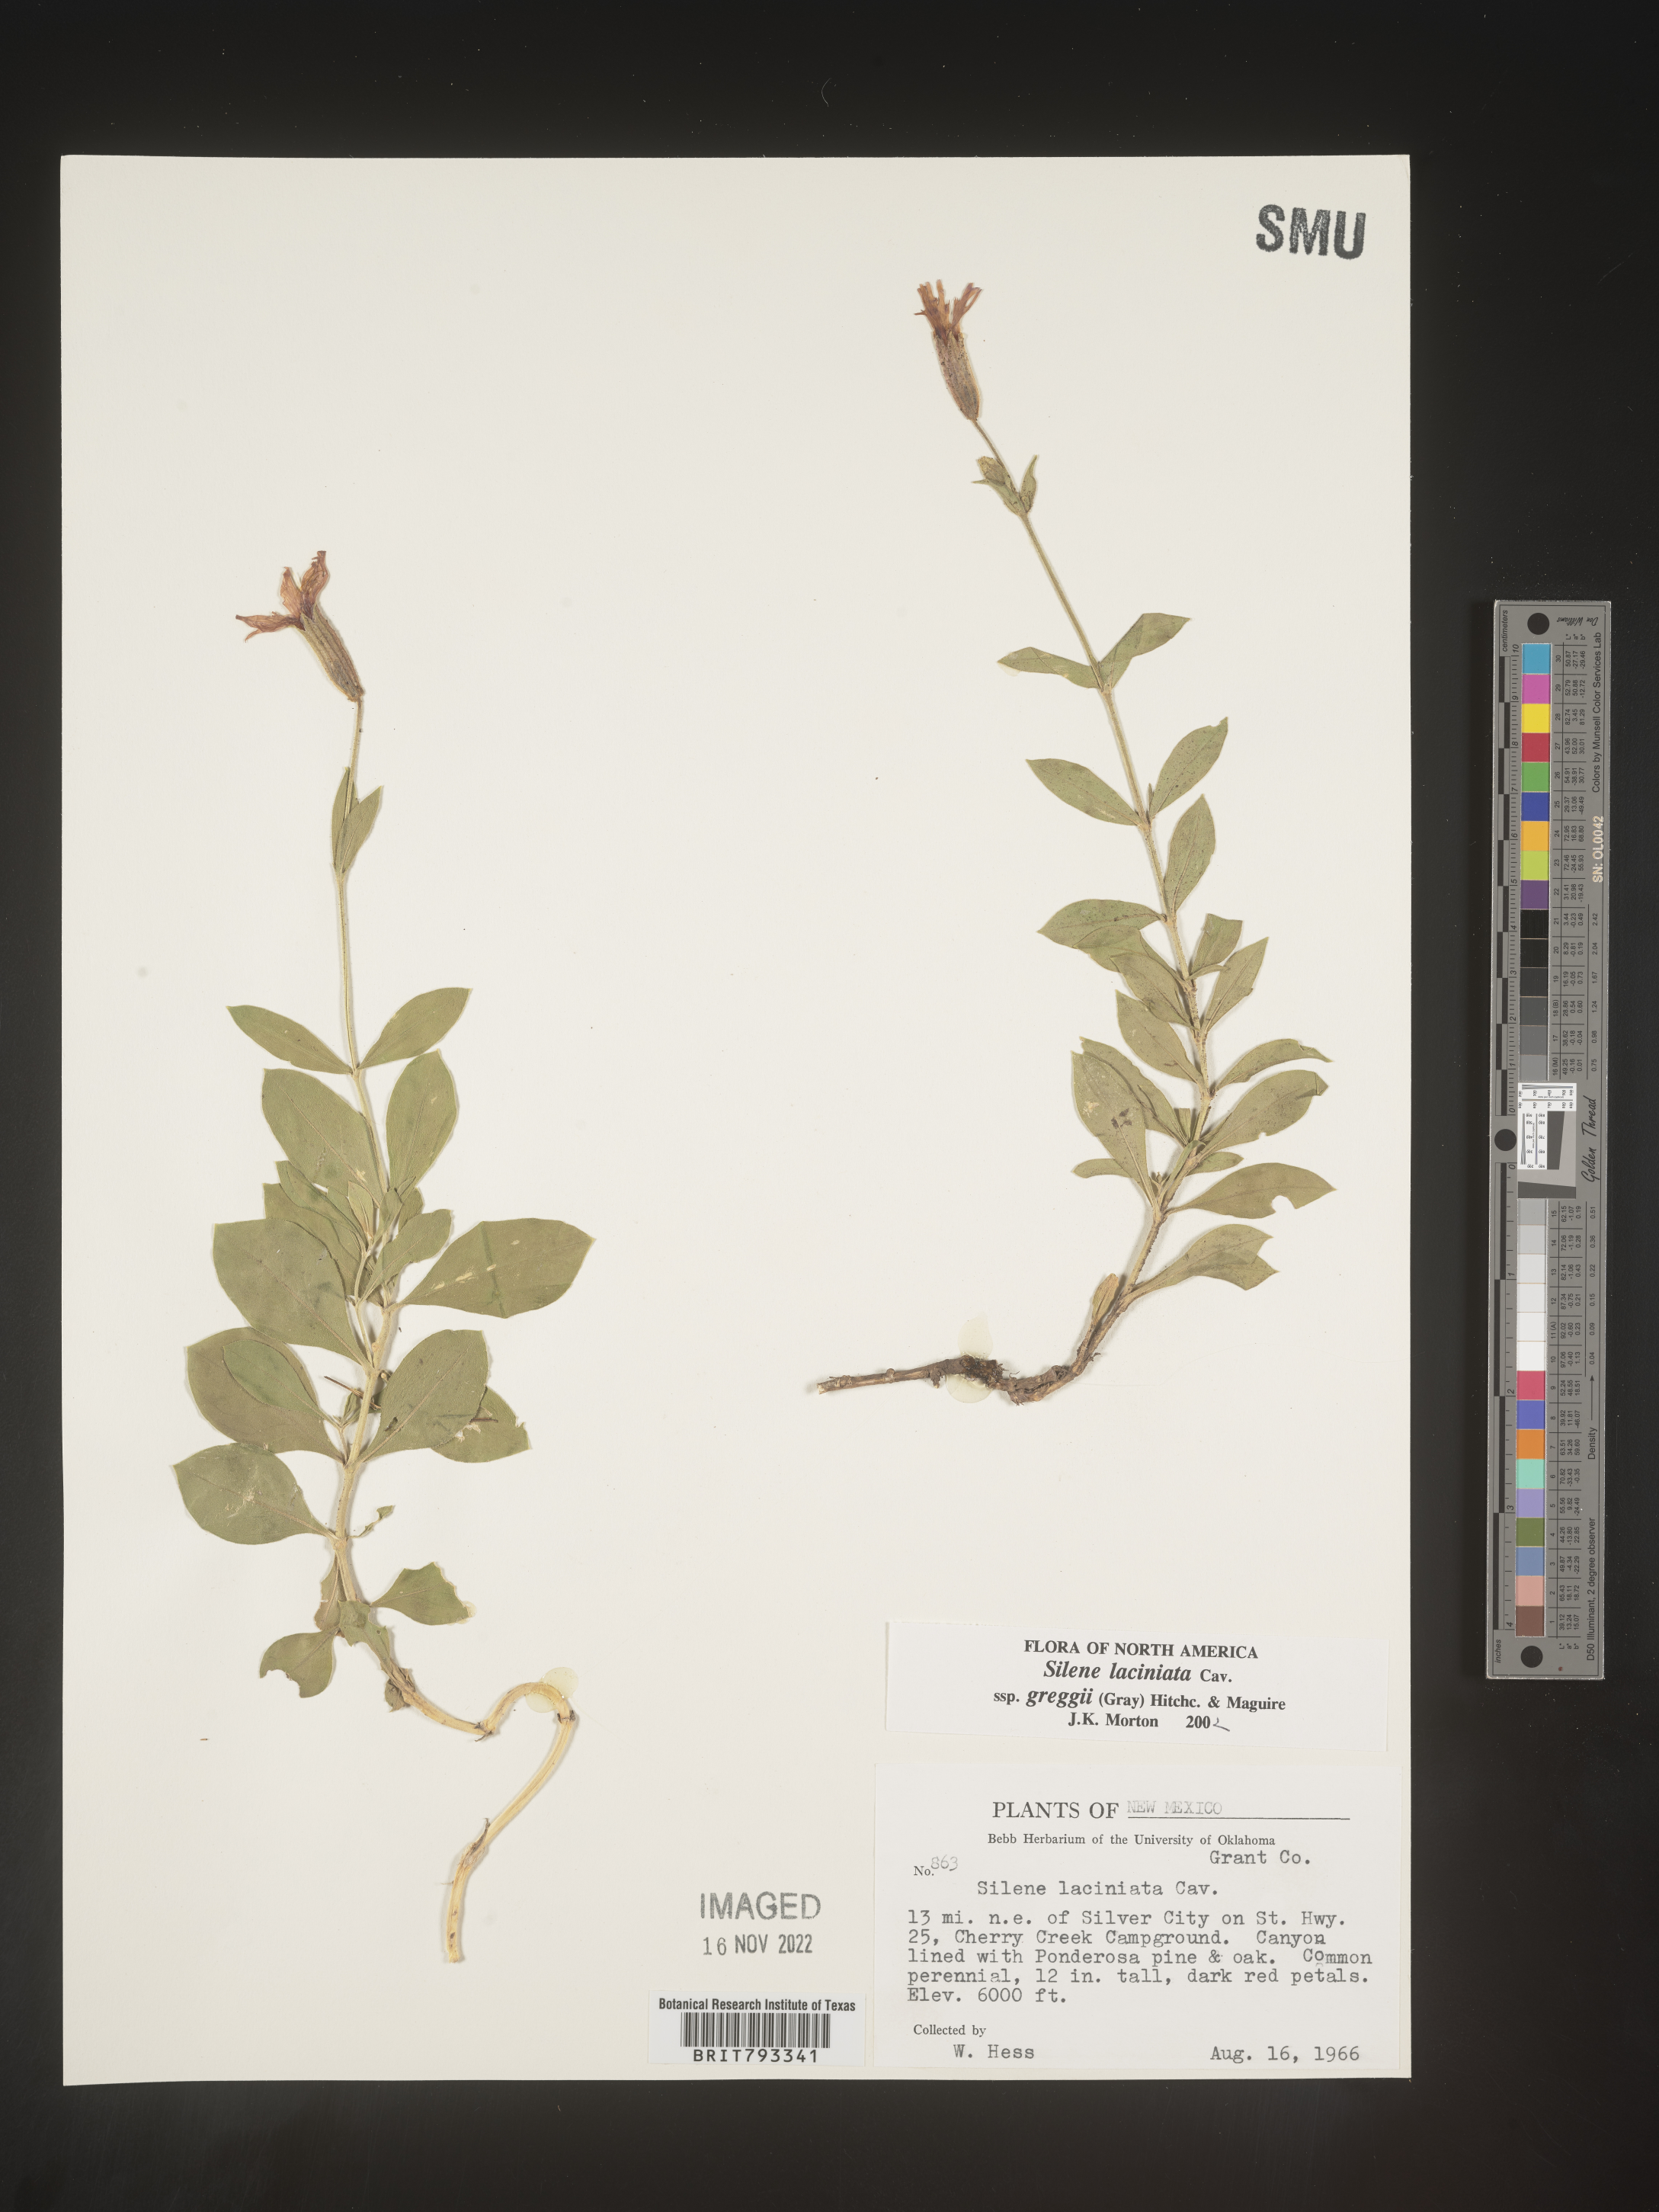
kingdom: Plantae
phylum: Tracheophyta
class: Magnoliopsida
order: Caryophyllales
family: Caryophyllaceae
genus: Silene
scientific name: Silene laciniata
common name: Indian-pink
